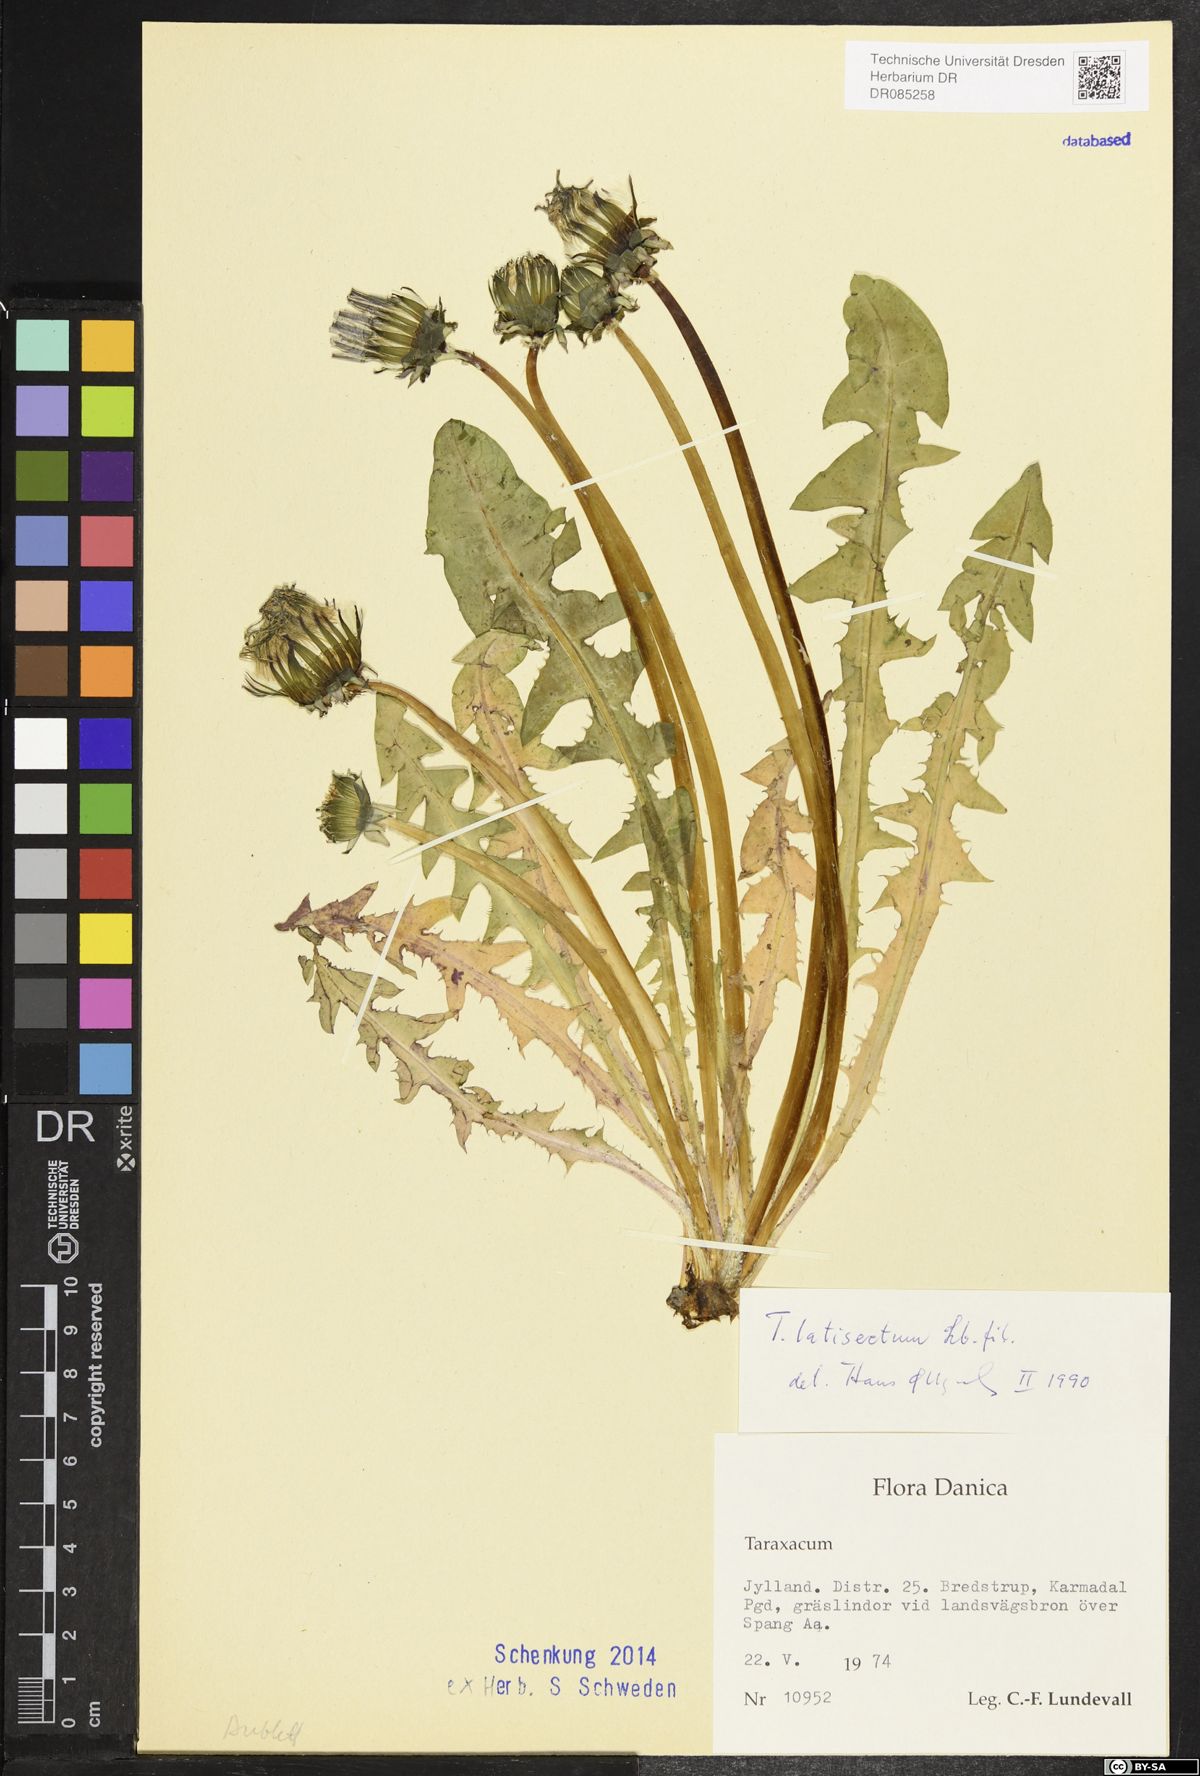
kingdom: Plantae
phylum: Tracheophyta
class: Magnoliopsida
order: Asterales
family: Asteraceae
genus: Taraxacum
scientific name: Taraxacum latisectum
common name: Broad-lobed dandelion
